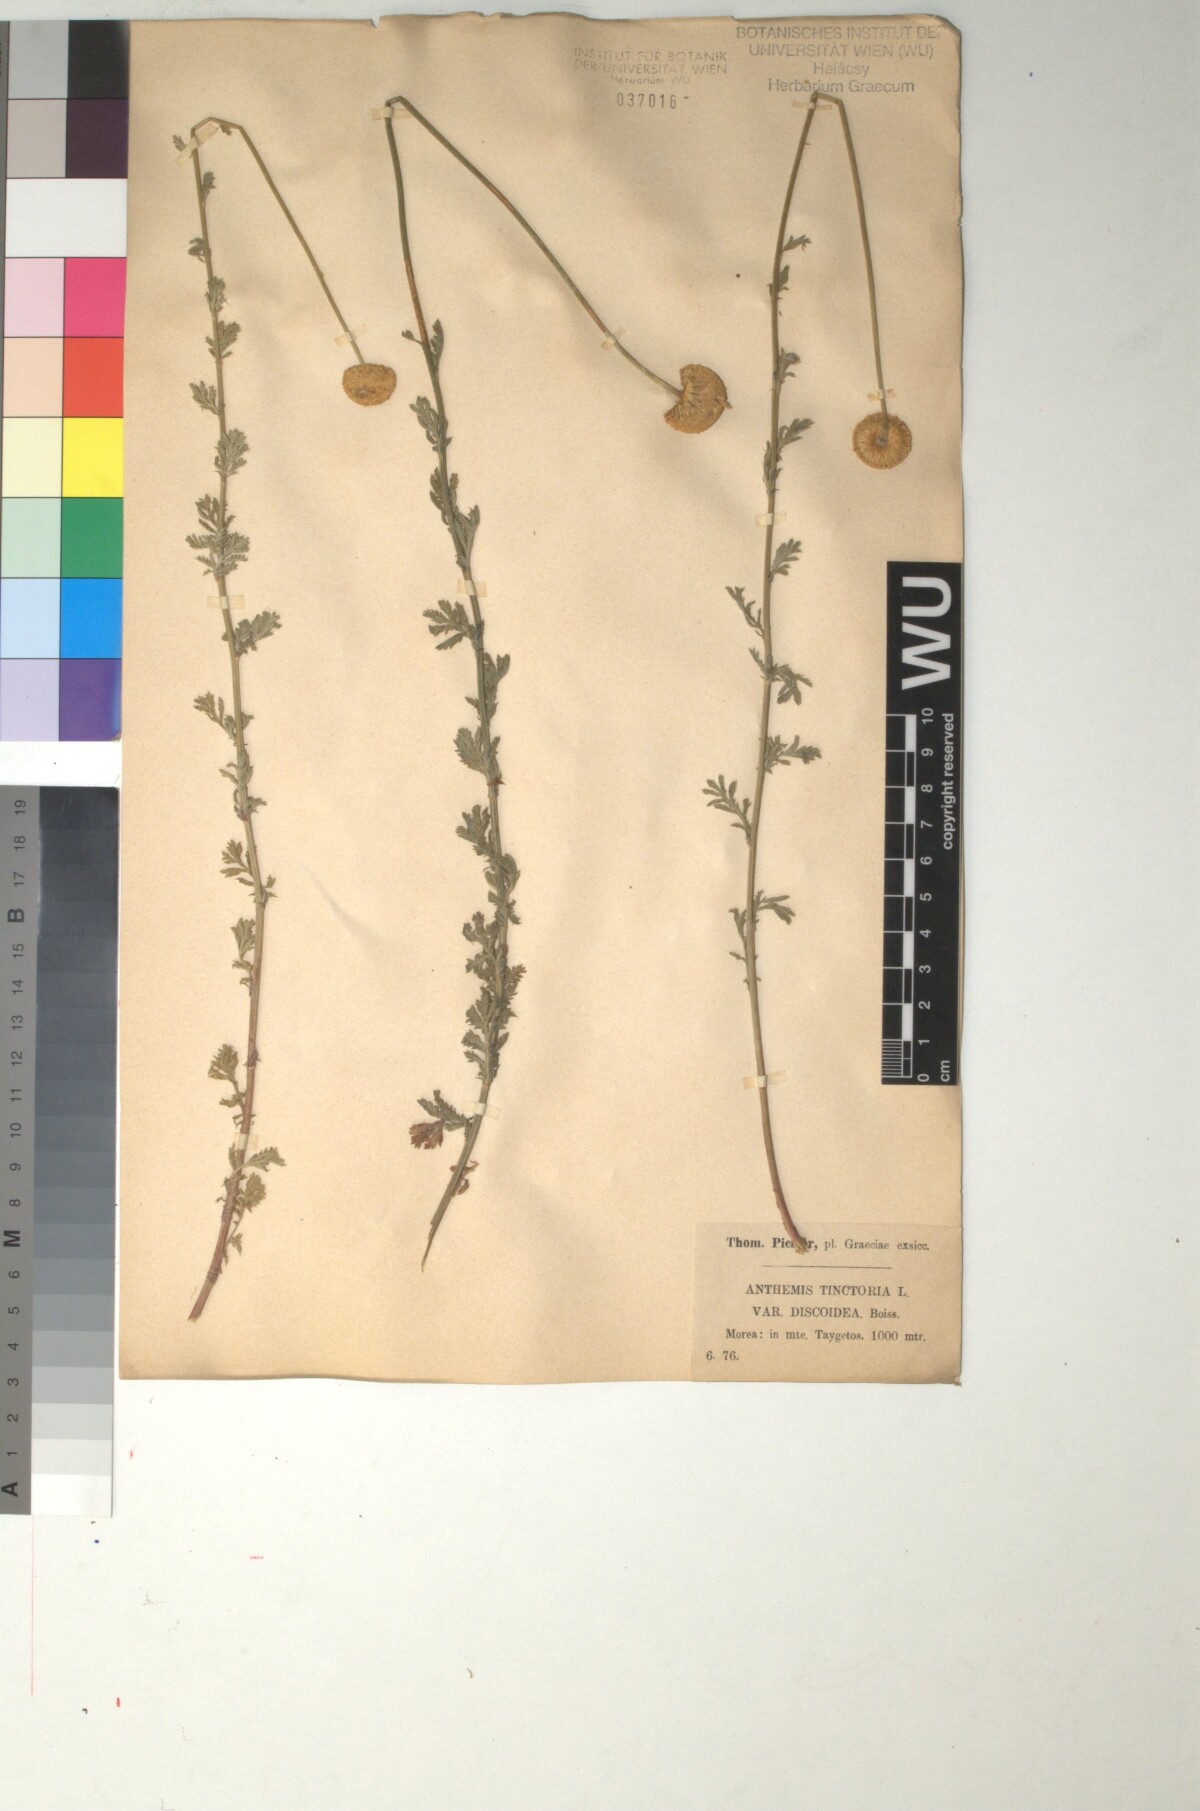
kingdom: Plantae
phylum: Tracheophyta
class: Magnoliopsida
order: Asterales
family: Asteraceae
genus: Cota
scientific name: Cota tinctoria
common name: Golden chamomile
